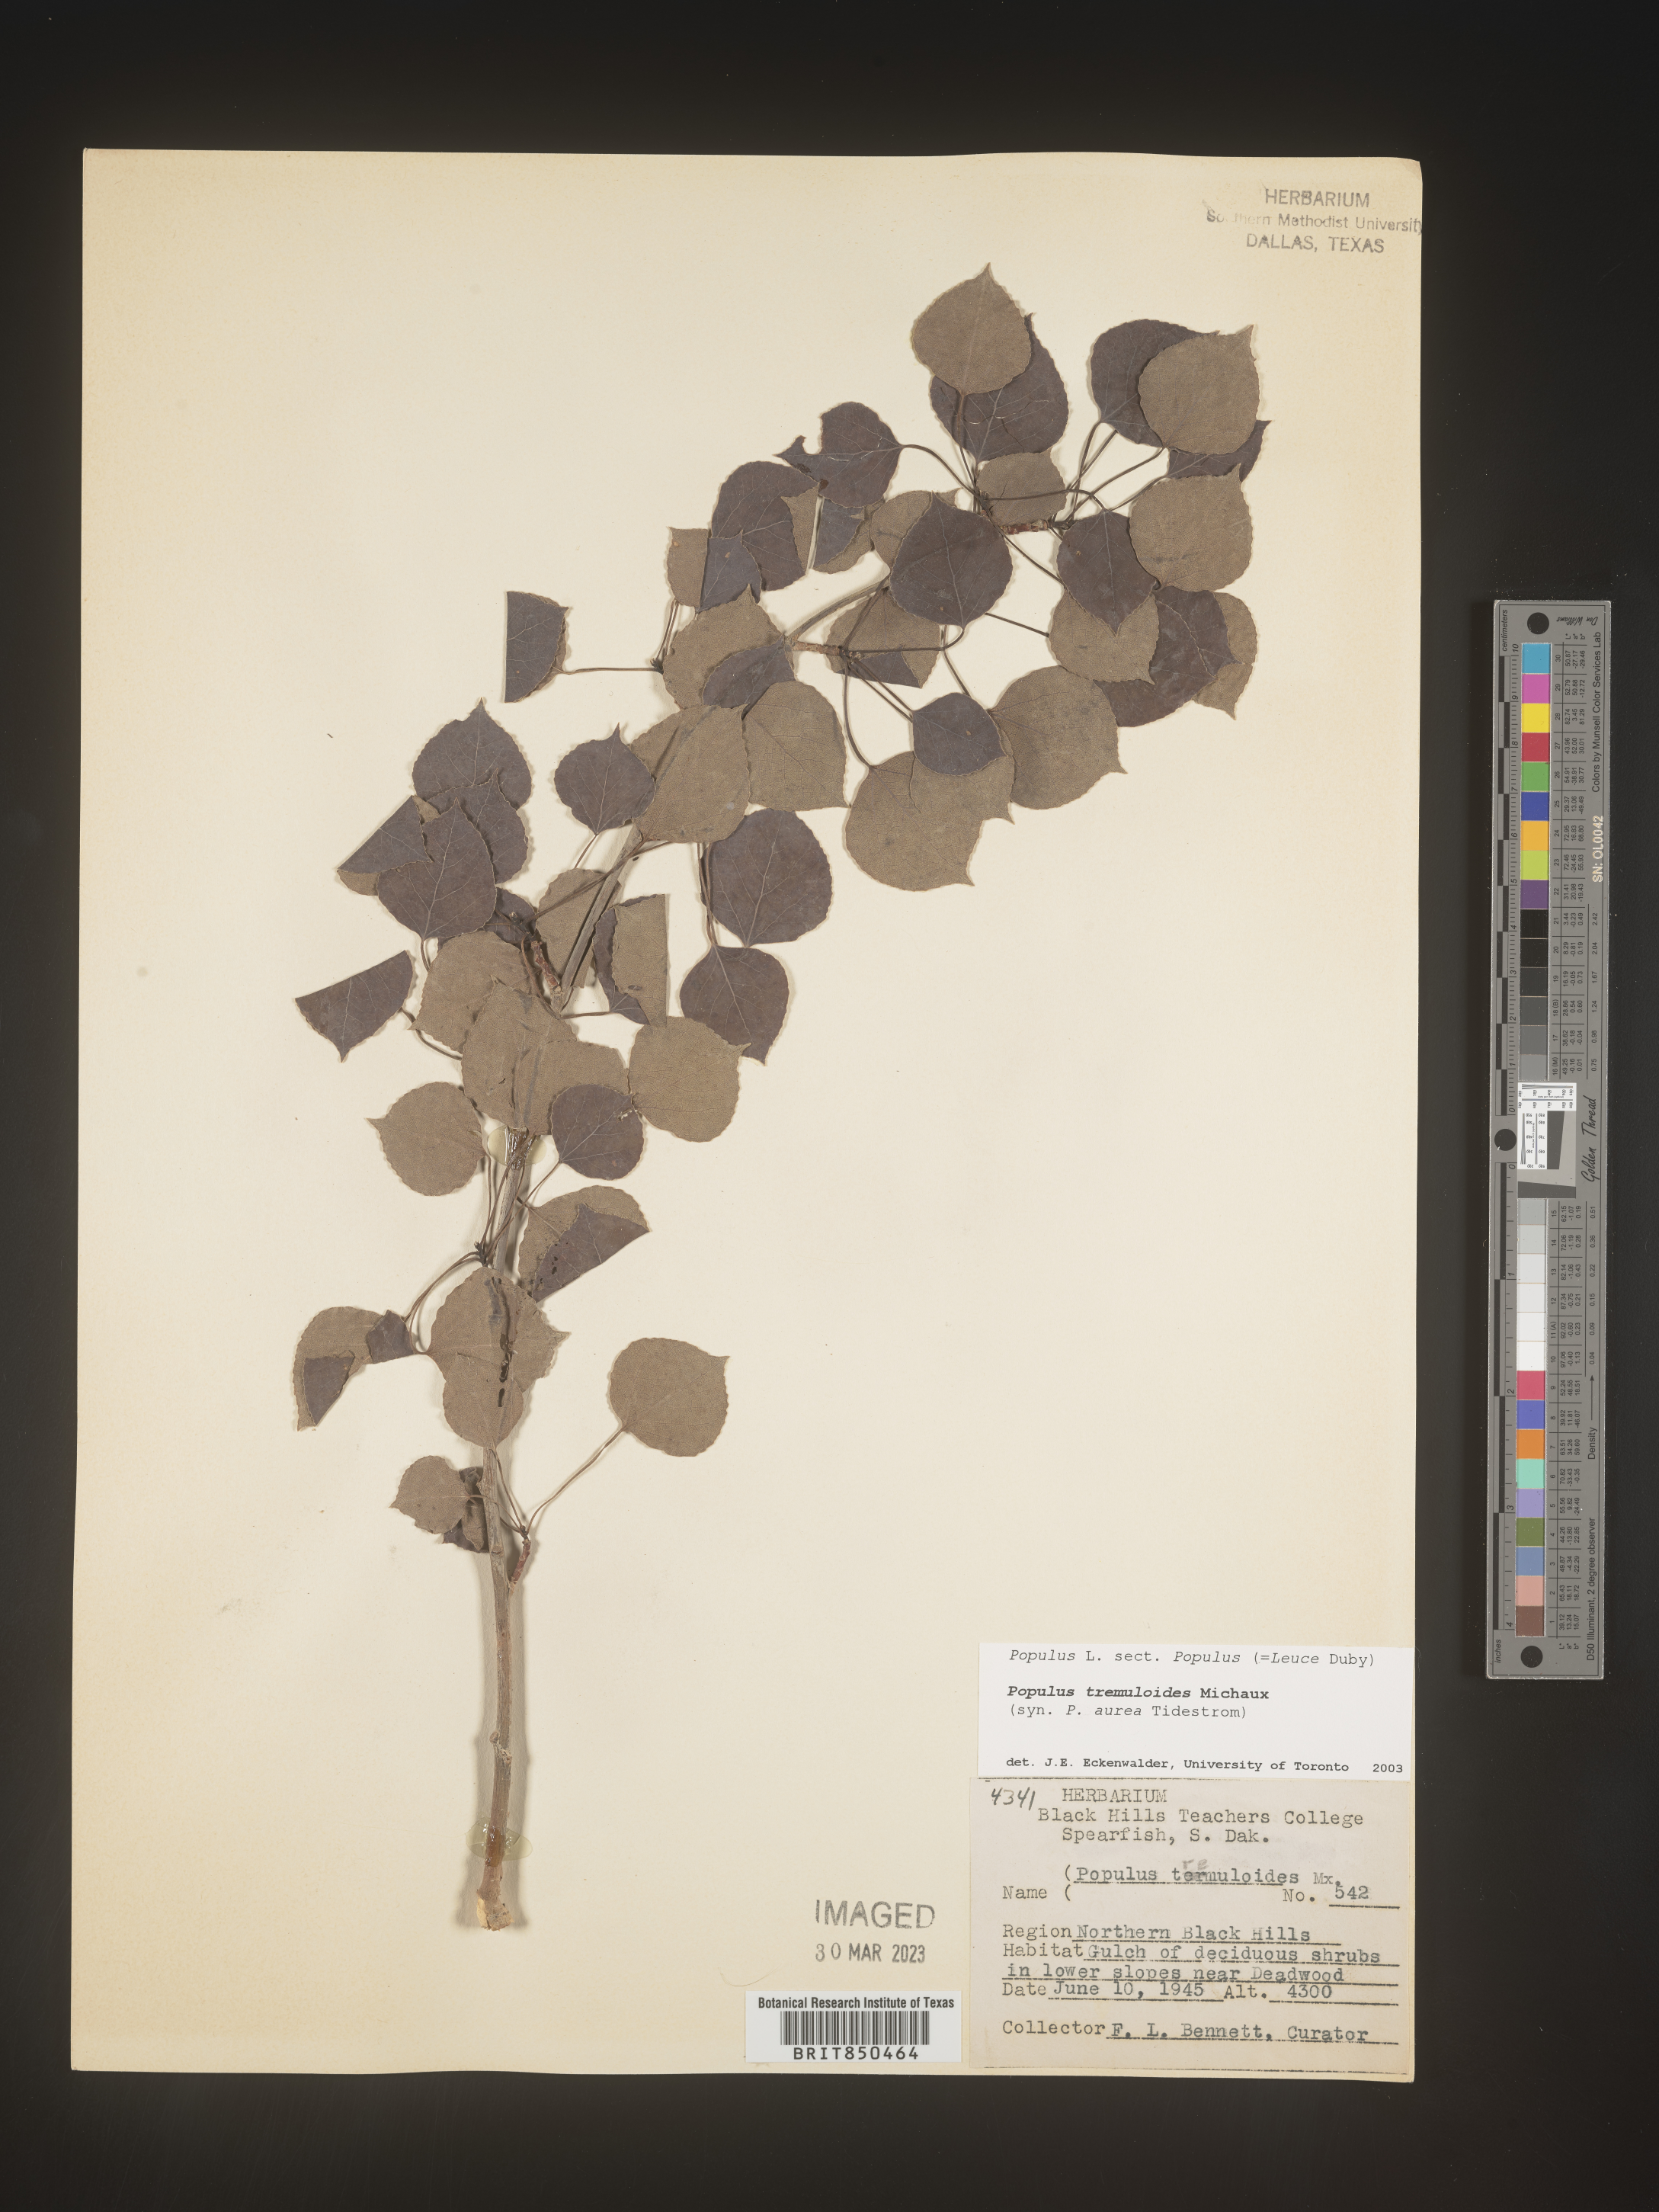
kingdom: Plantae
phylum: Tracheophyta
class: Magnoliopsida
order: Malpighiales
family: Salicaceae
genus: Populus
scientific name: Populus tremuloides
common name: Quaking aspen
